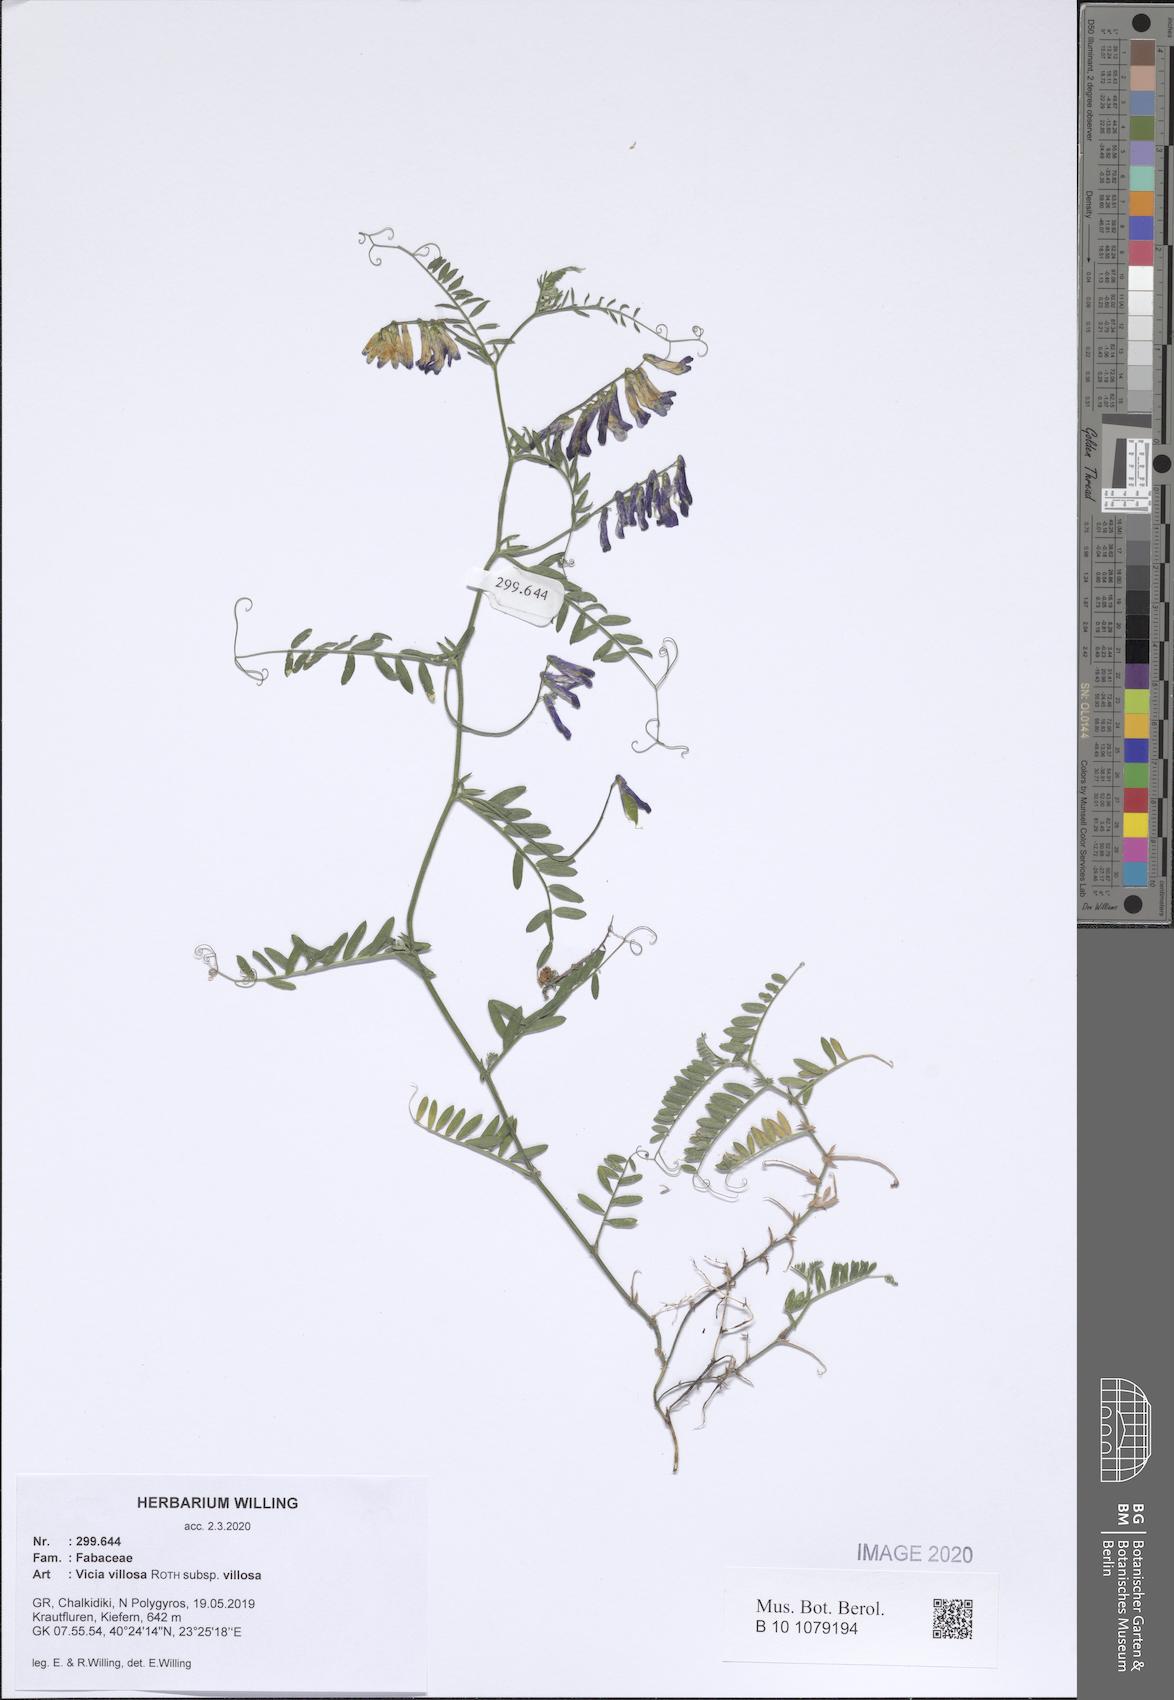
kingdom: Plantae
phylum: Tracheophyta
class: Magnoliopsida
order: Fabales
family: Fabaceae
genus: Vicia
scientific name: Vicia villosa
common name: Fodder vetch
